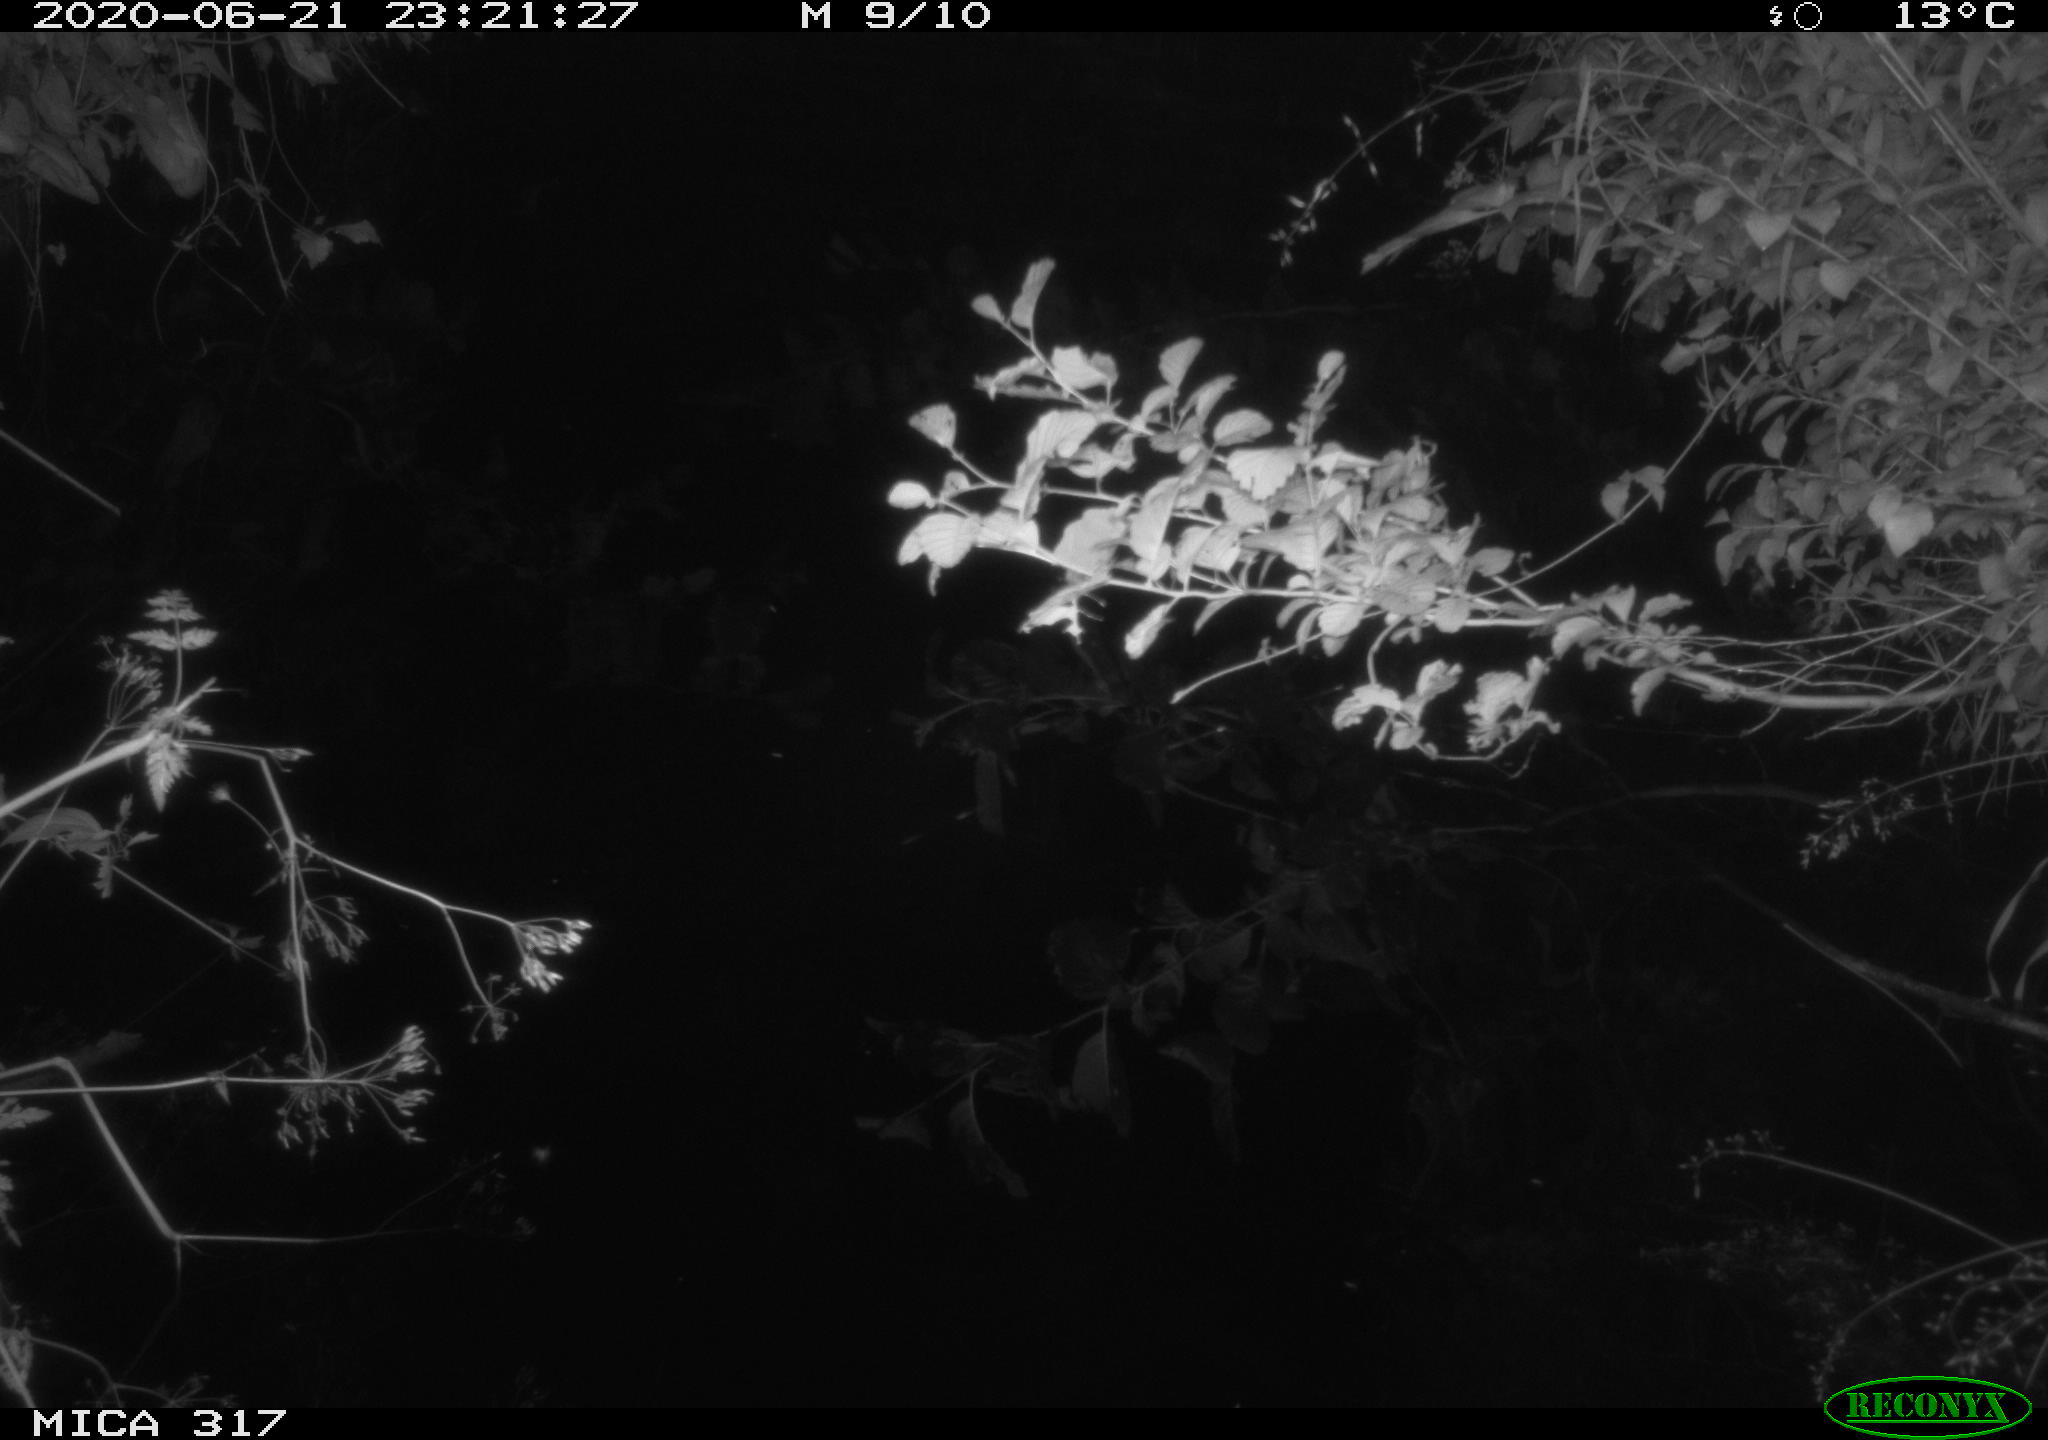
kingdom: Animalia
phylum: Chordata
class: Aves
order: Anseriformes
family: Anatidae
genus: Anas
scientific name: Anas platyrhynchos
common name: Mallard
